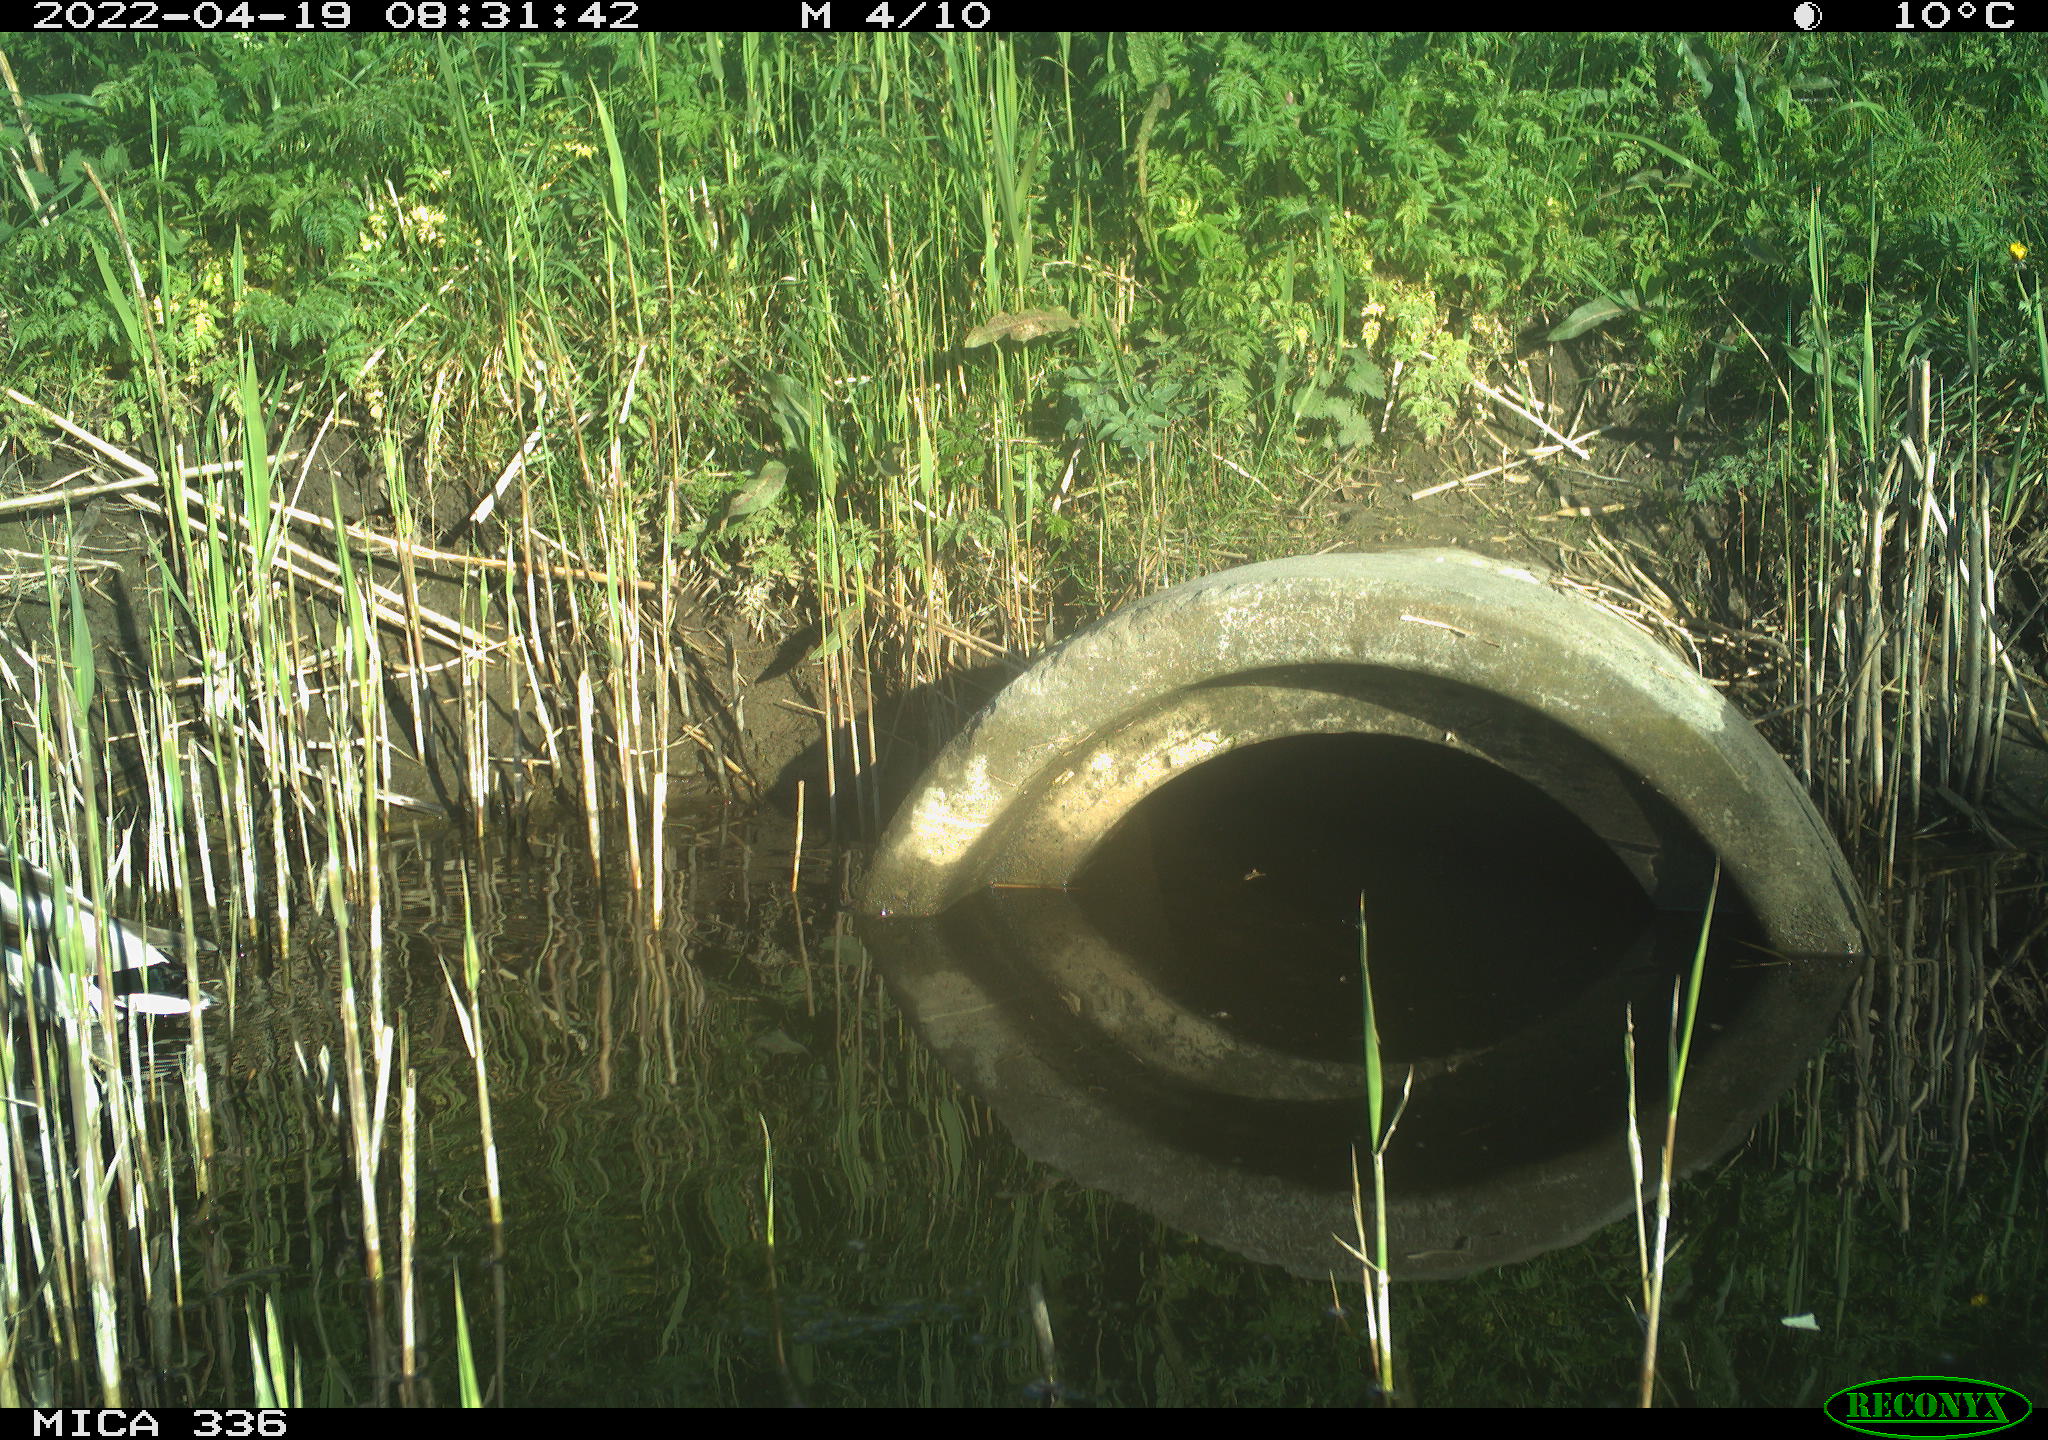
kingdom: Animalia
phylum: Chordata
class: Aves
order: Anseriformes
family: Anatidae
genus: Anas
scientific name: Anas platyrhynchos
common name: Mallard
